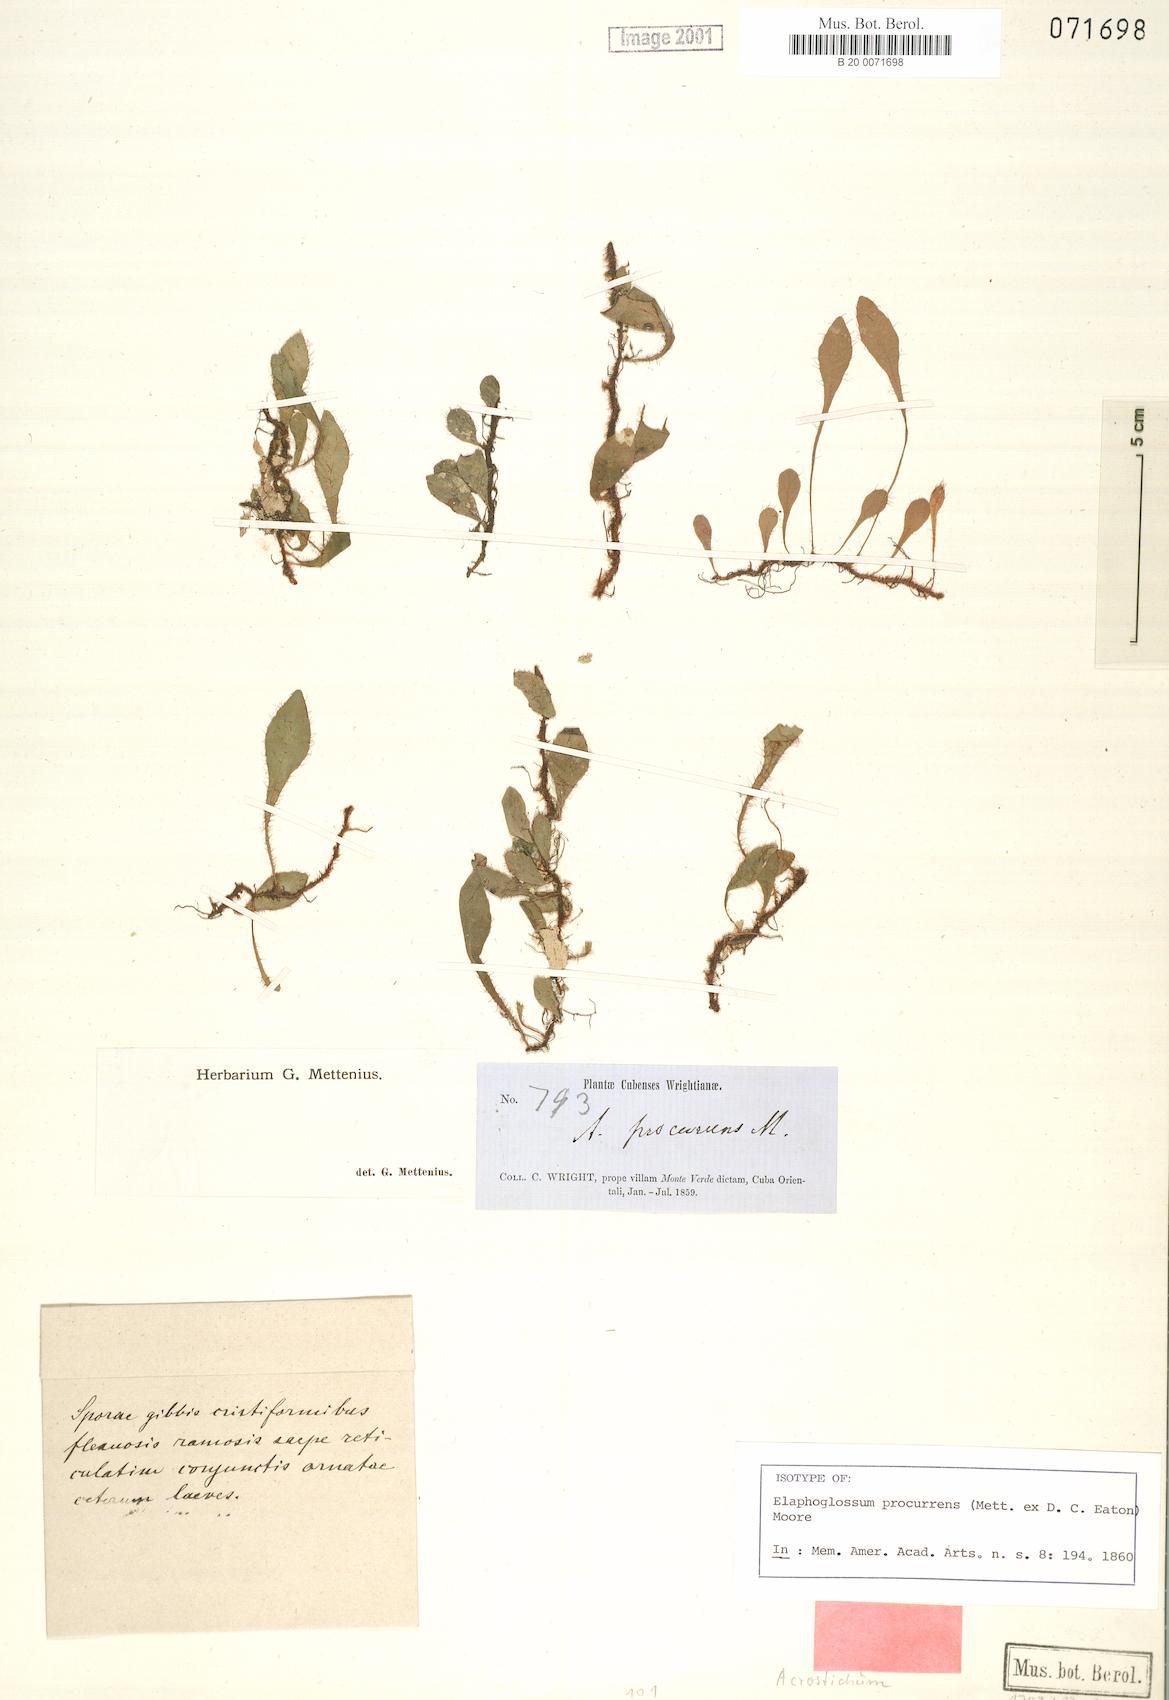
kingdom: Plantae
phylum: Tracheophyta
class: Polypodiopsida
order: Polypodiales
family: Dryopteridaceae
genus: Elaphoglossum
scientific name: Elaphoglossum procurrens
